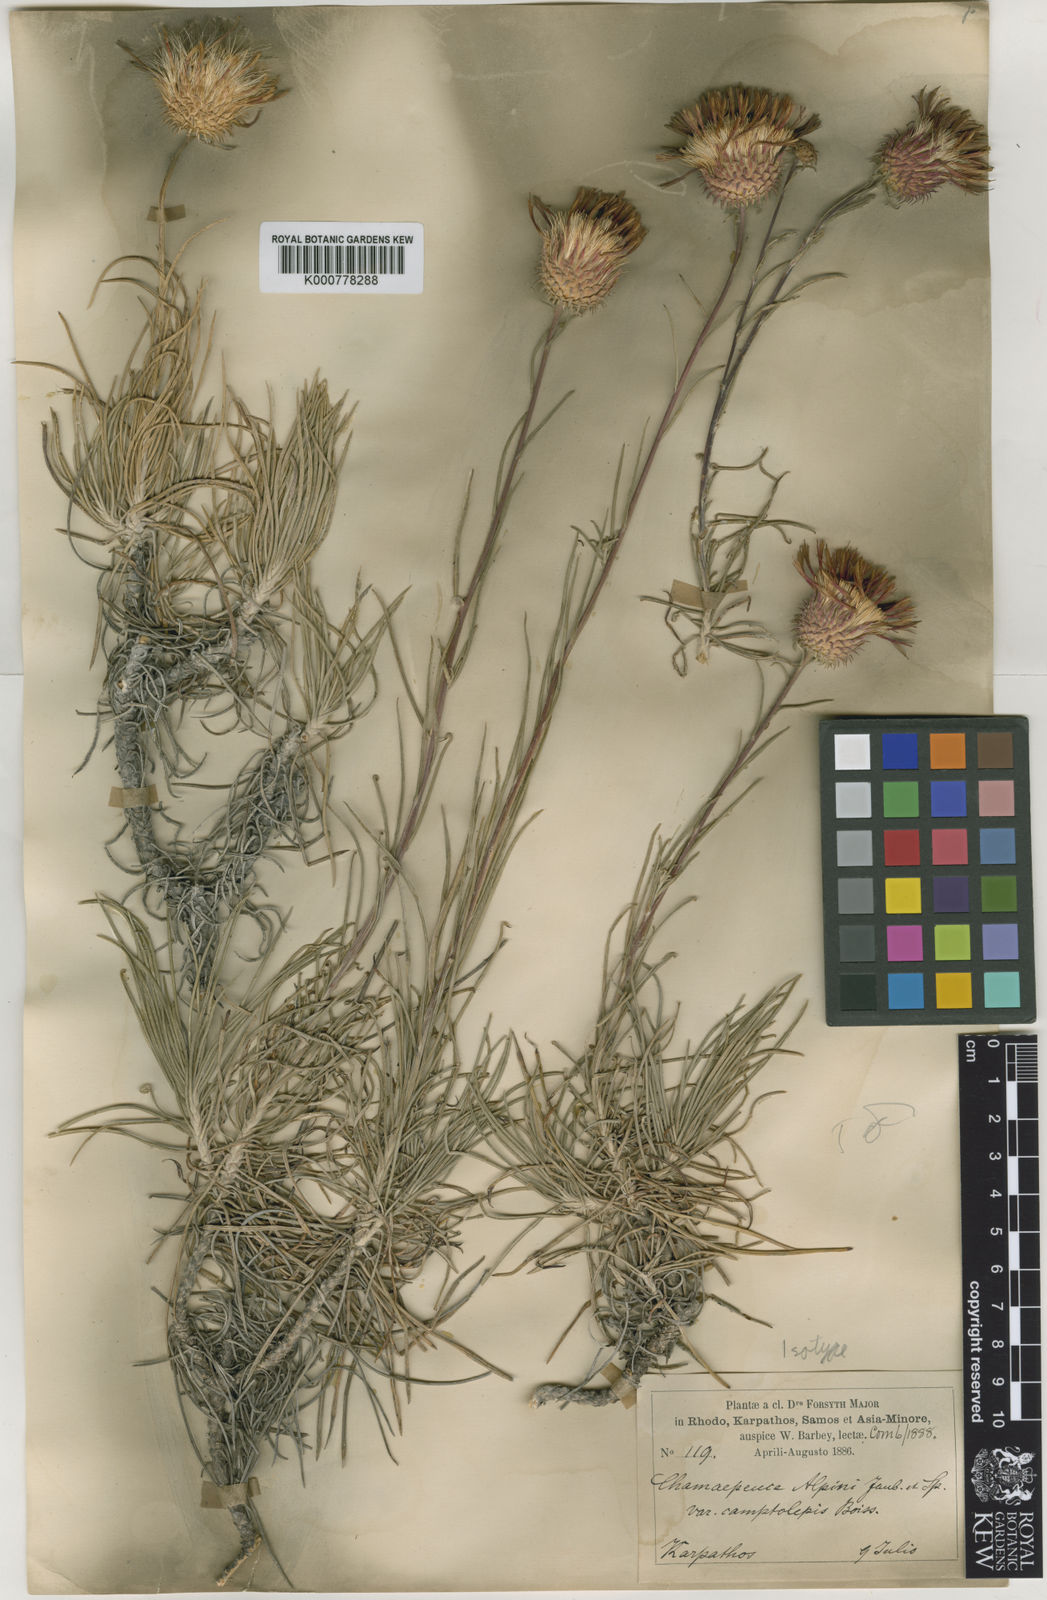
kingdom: Plantae
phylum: Tracheophyta
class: Magnoliopsida
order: Asterales
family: Asteraceae
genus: Ptilostemon
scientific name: Ptilostemon chamaepeuce
